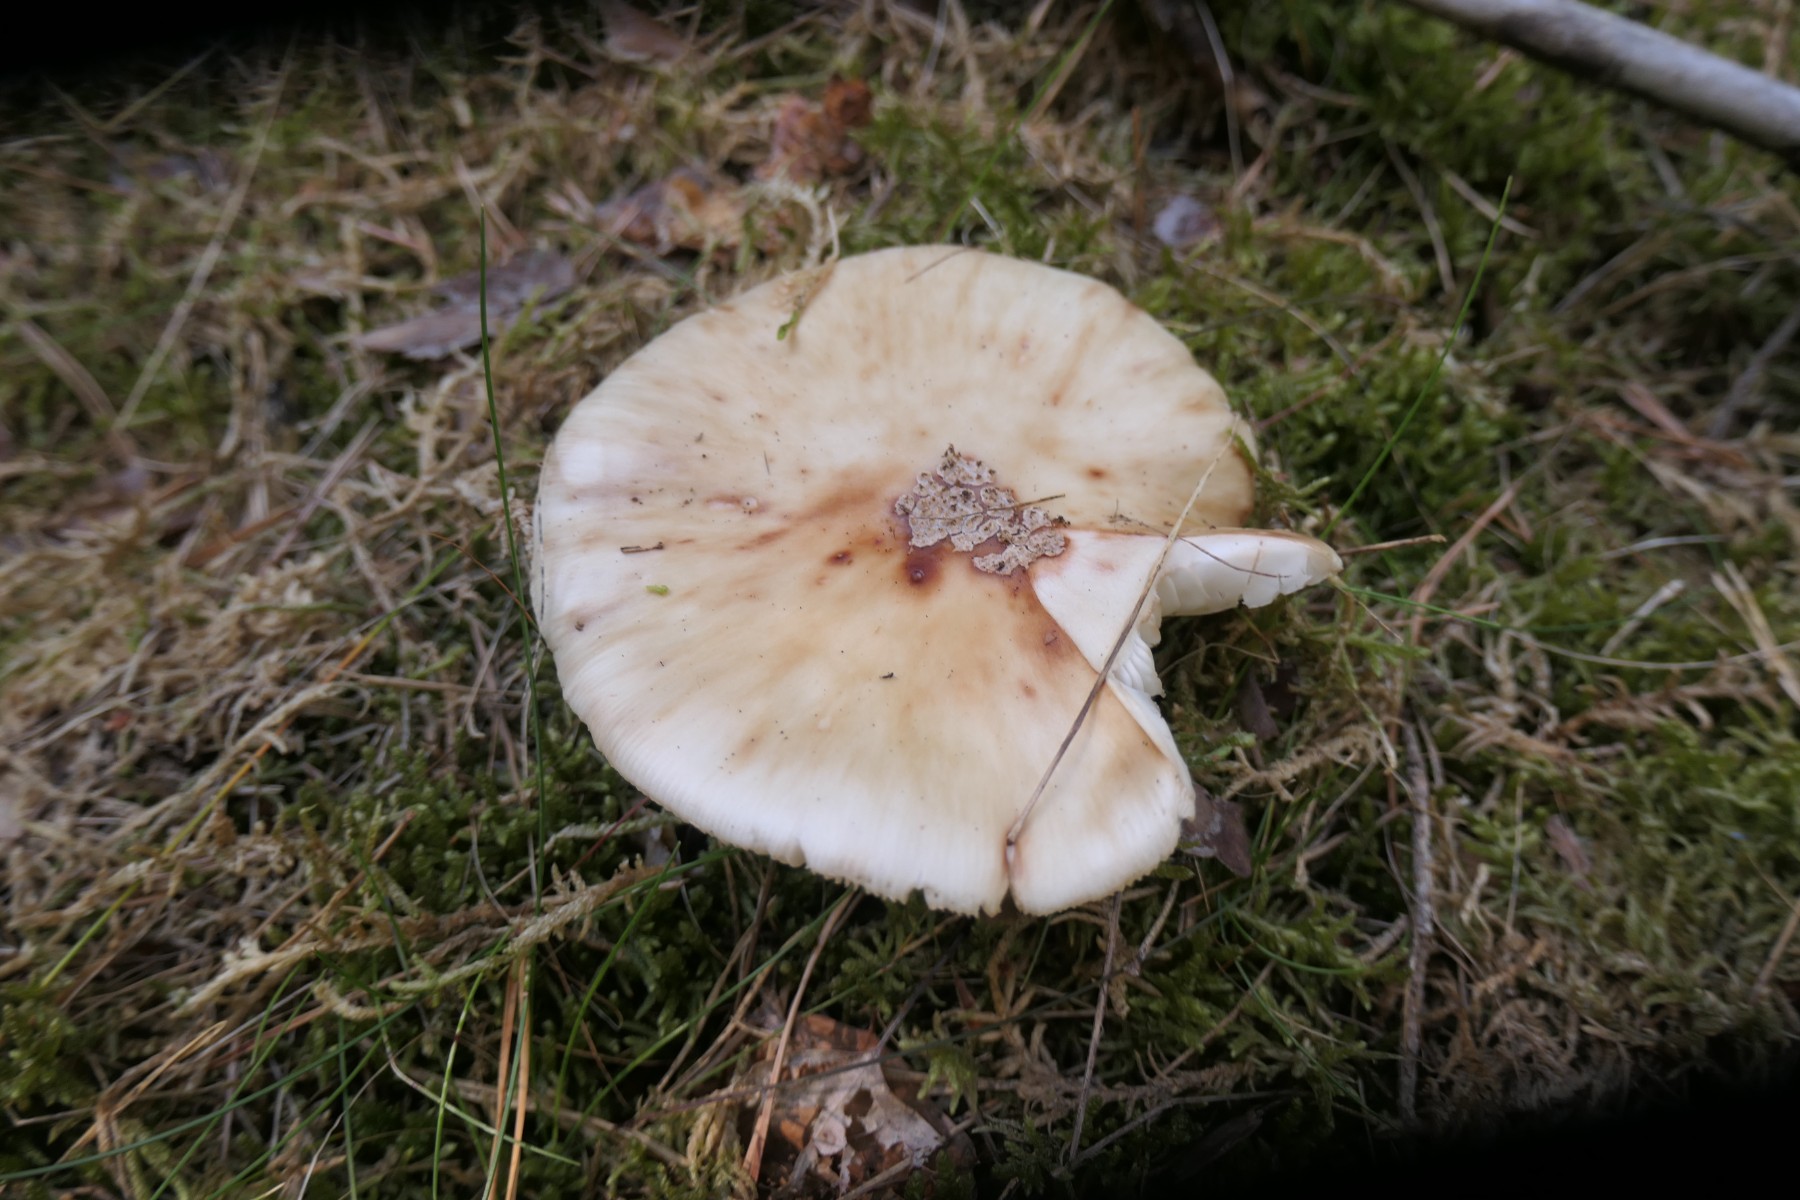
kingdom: Fungi
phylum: Basidiomycota
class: Agaricomycetes
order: Agaricales
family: Amanitaceae
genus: Amanita
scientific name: Amanita rubescens
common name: rødmende fluesvamp
